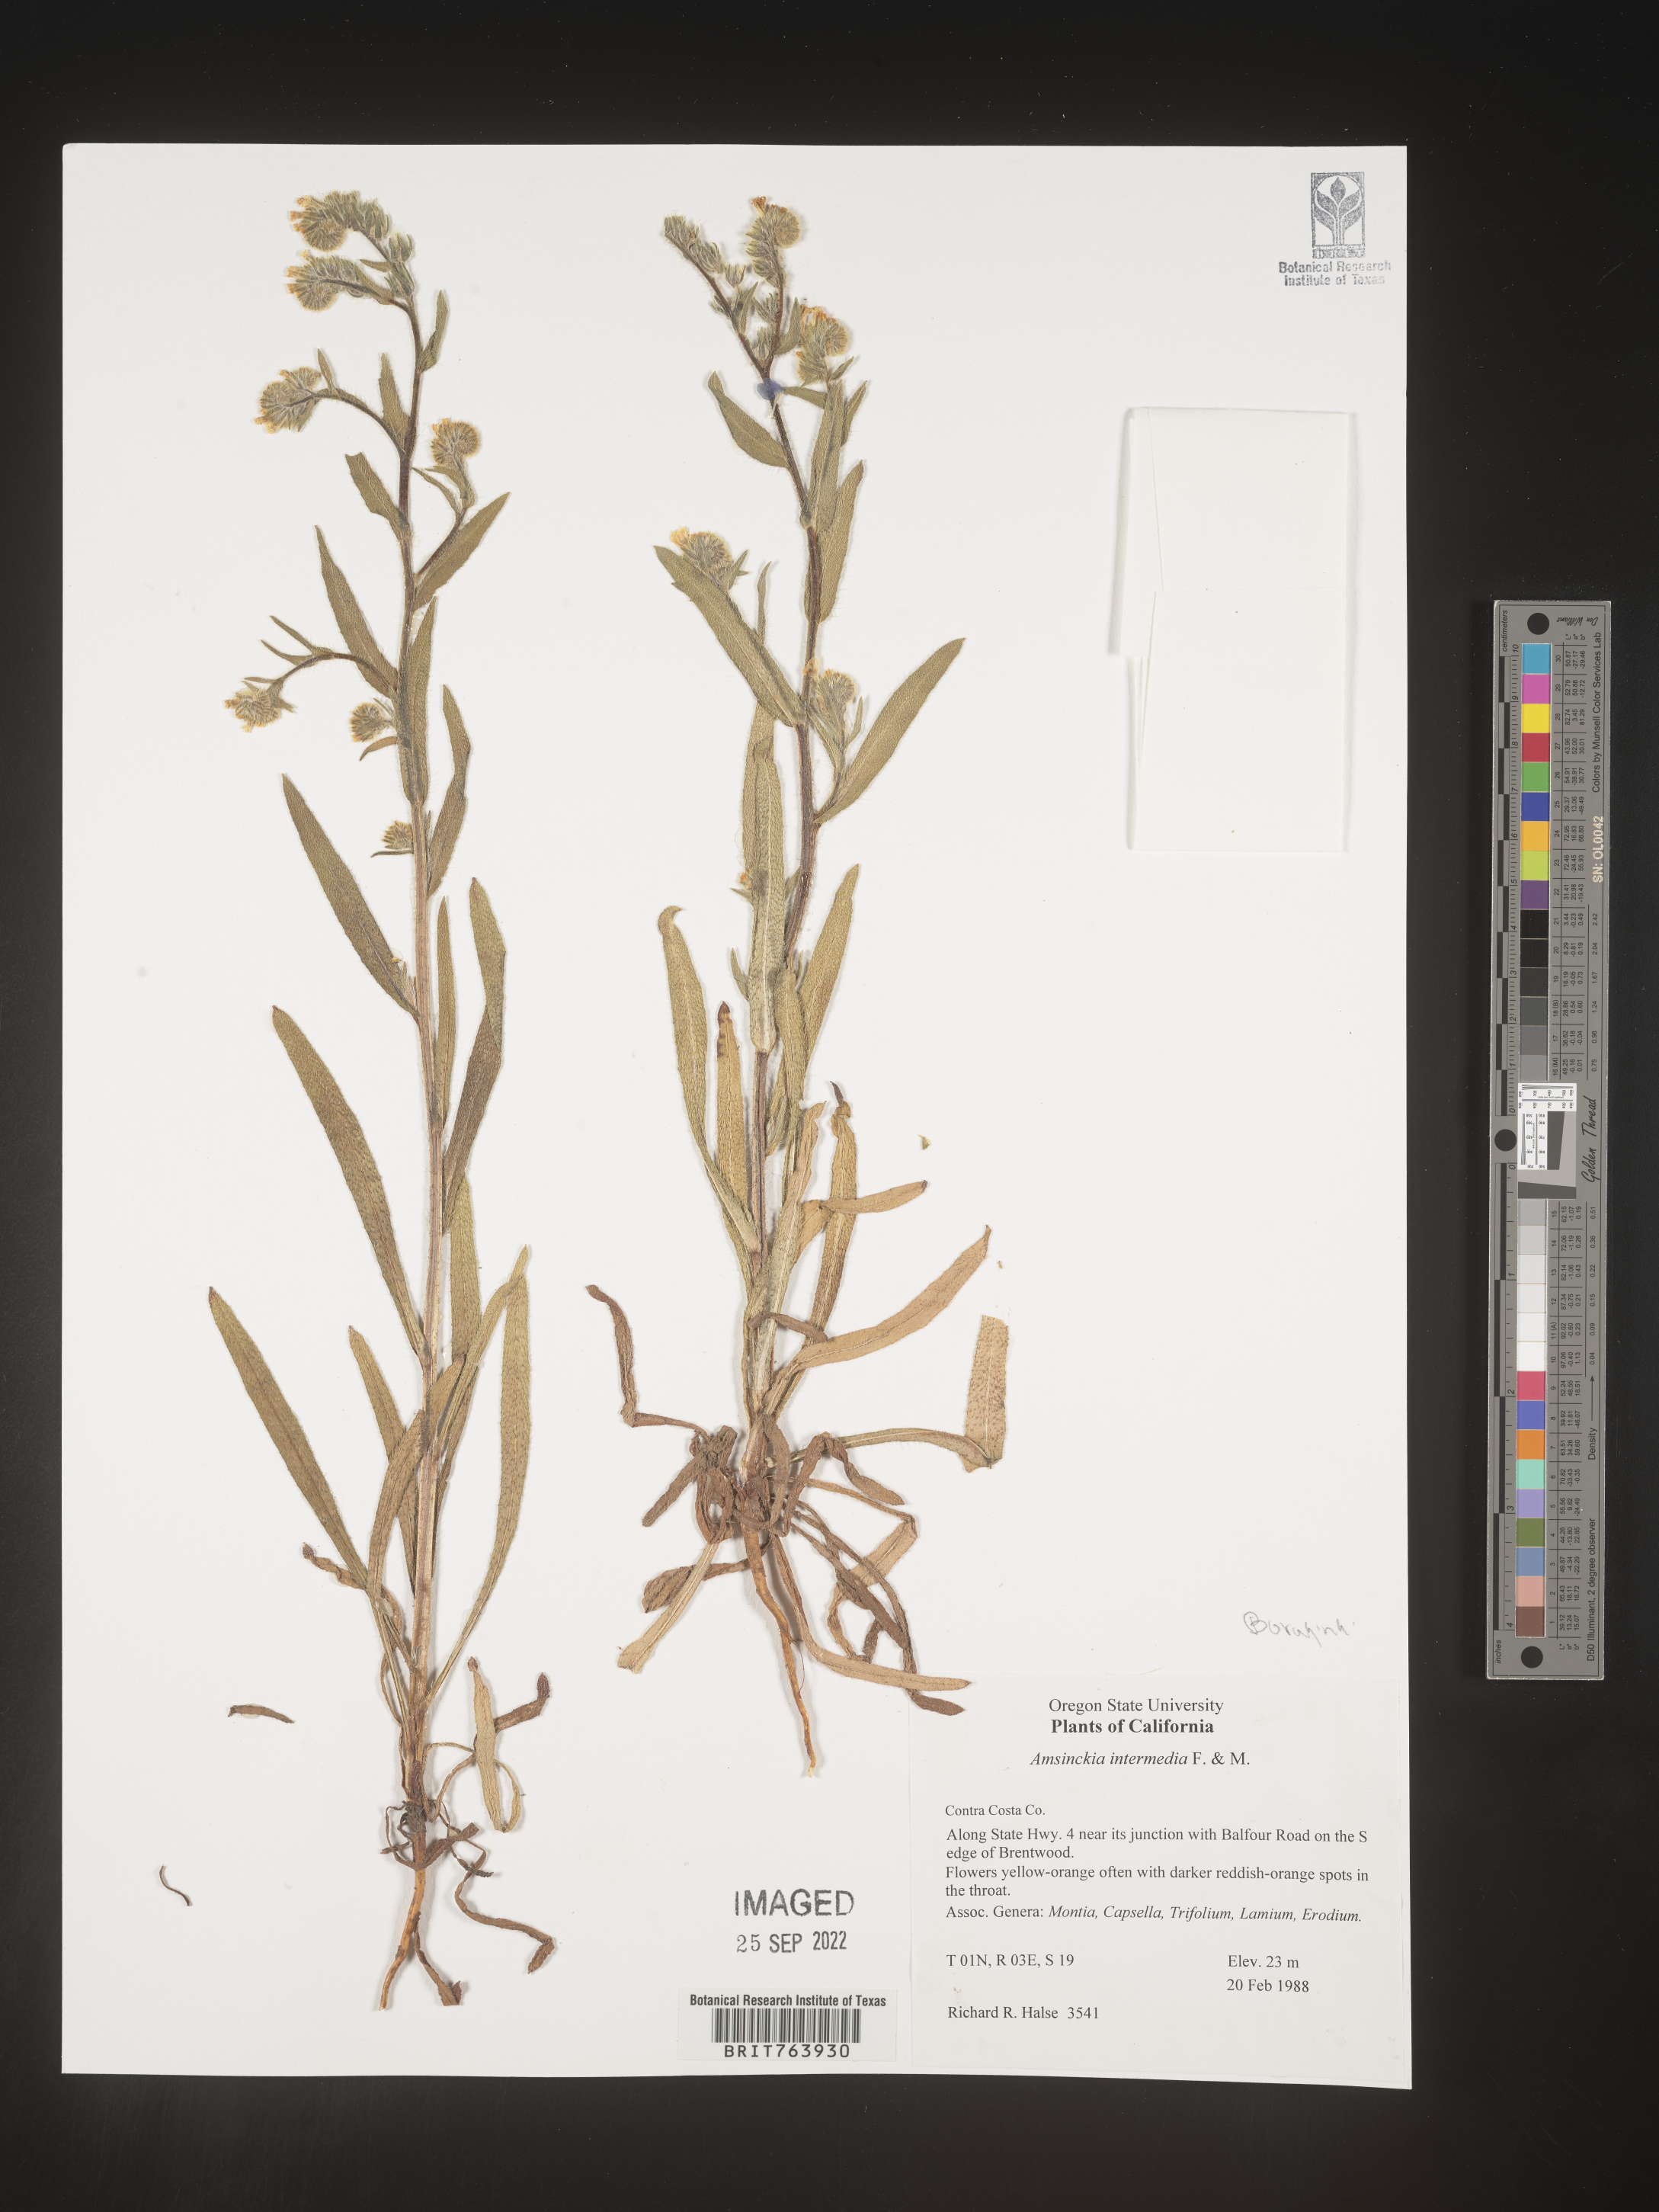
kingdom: Plantae
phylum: Tracheophyta
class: Magnoliopsida
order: Boraginales
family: Boraginaceae
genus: Amsinckia
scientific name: Amsinckia
